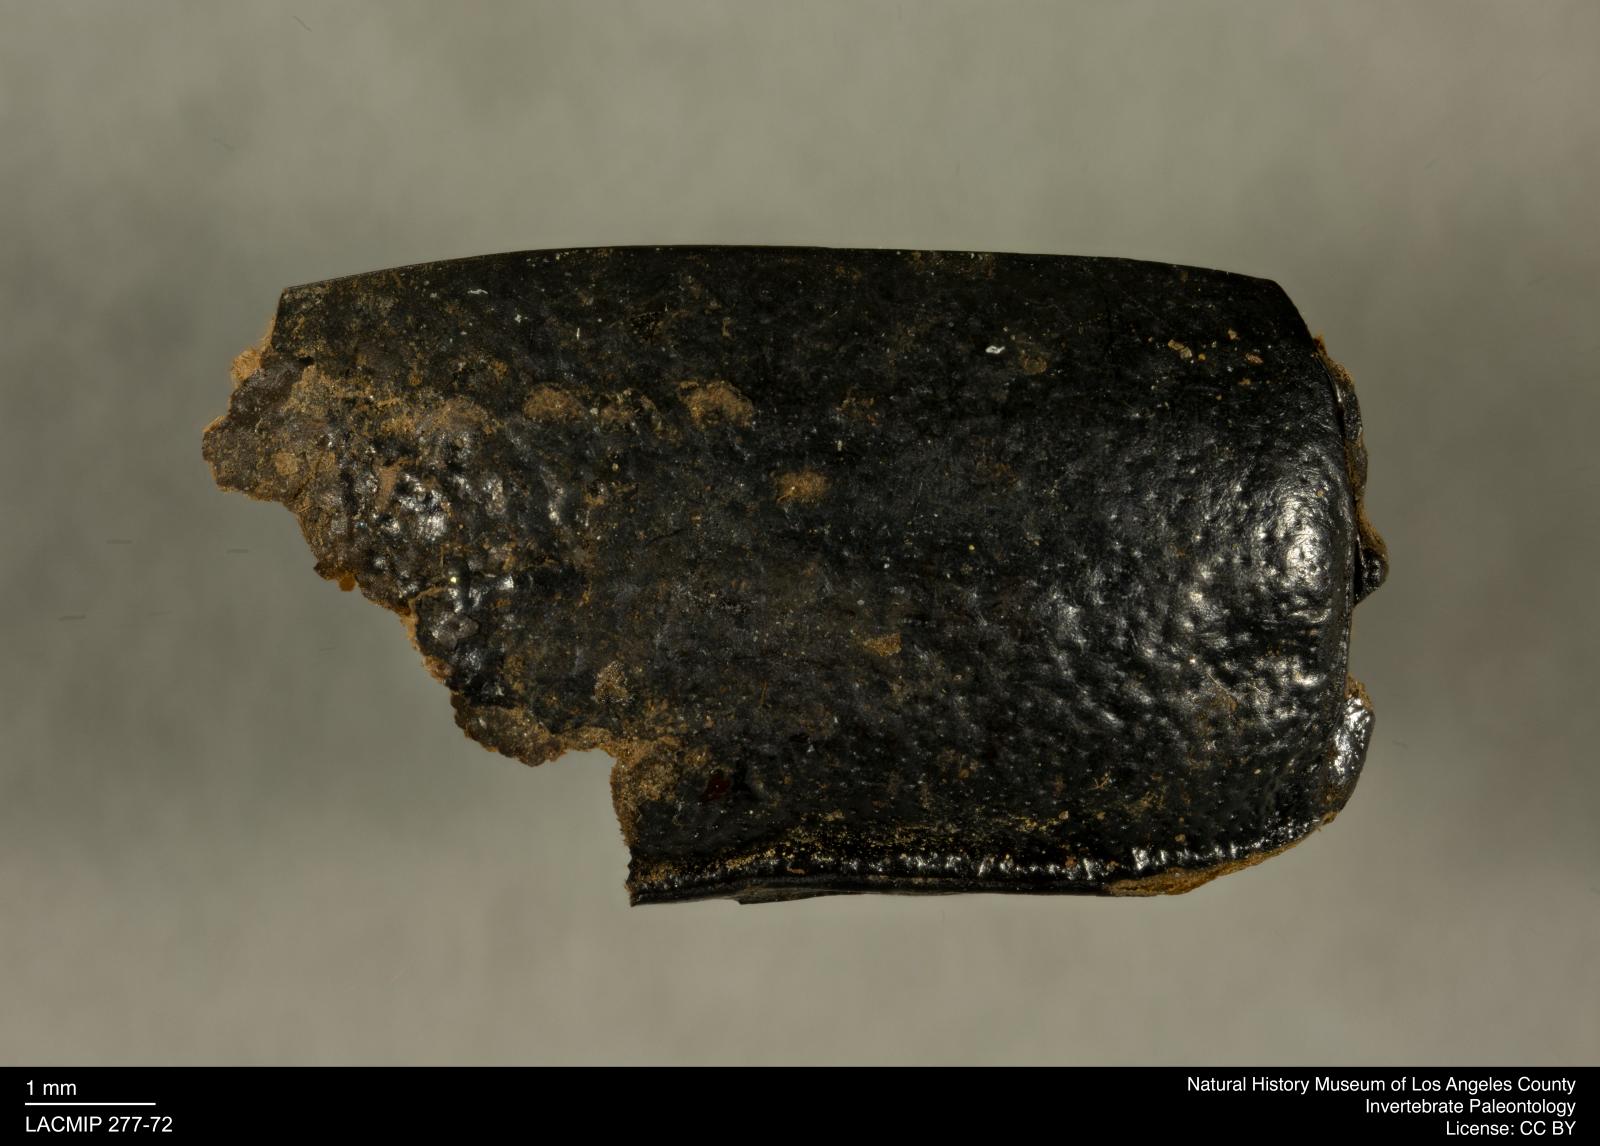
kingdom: Animalia
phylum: Arthropoda
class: Insecta
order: Coleoptera
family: Tenebrionidae
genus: Coniontis
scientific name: Coniontis abdominalis
